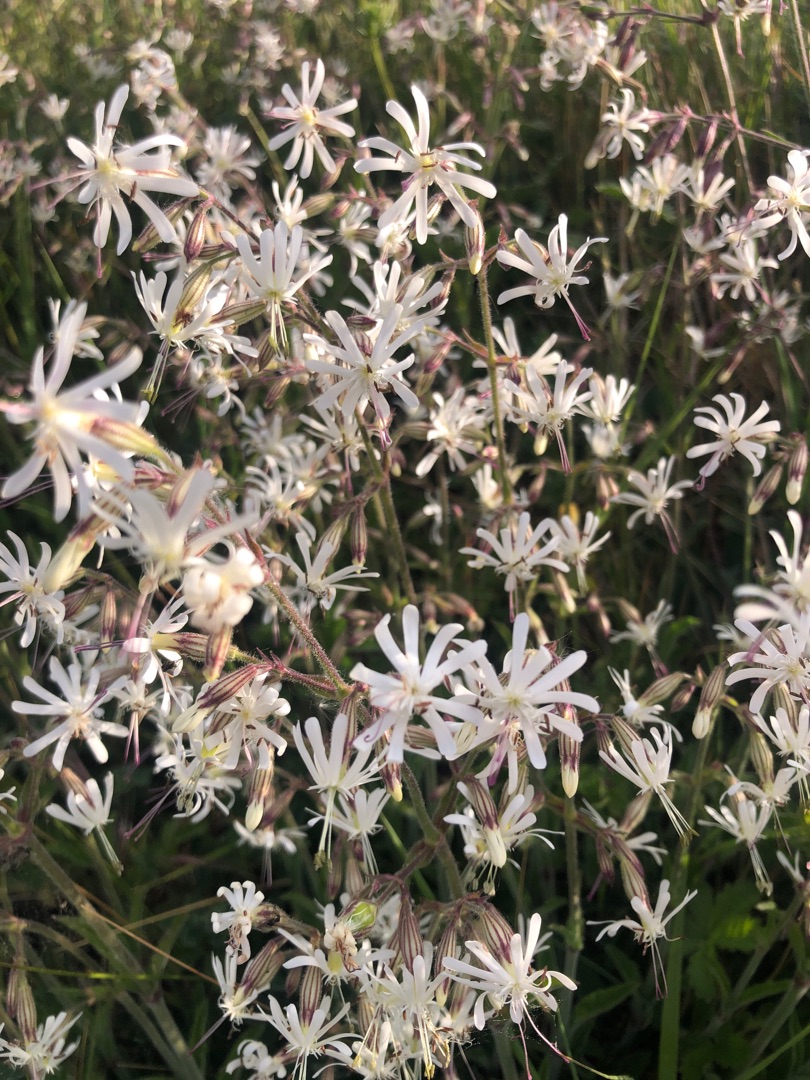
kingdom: Plantae
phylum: Tracheophyta
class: Magnoliopsida
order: Caryophyllales
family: Caryophyllaceae
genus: Silene
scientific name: Silene nutans
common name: Nikkende limurt
